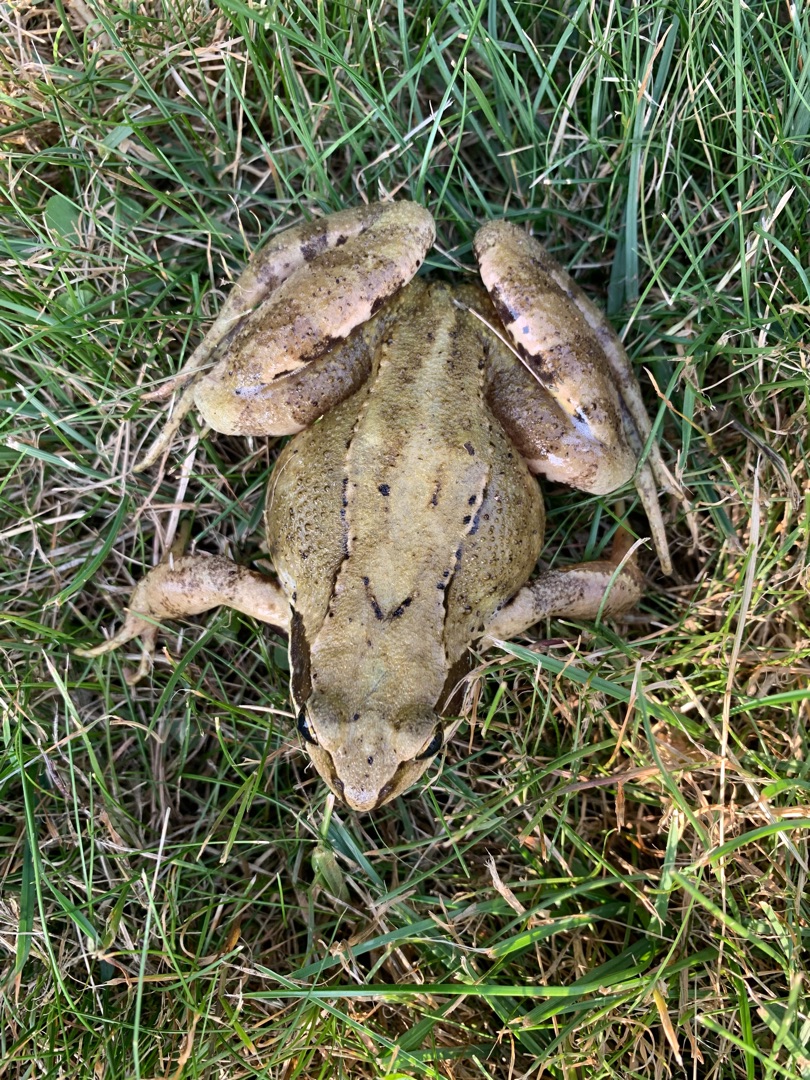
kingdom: Animalia
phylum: Chordata
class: Amphibia
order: Anura
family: Ranidae
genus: Rana
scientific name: Rana temporaria
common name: Butsnudet frø
